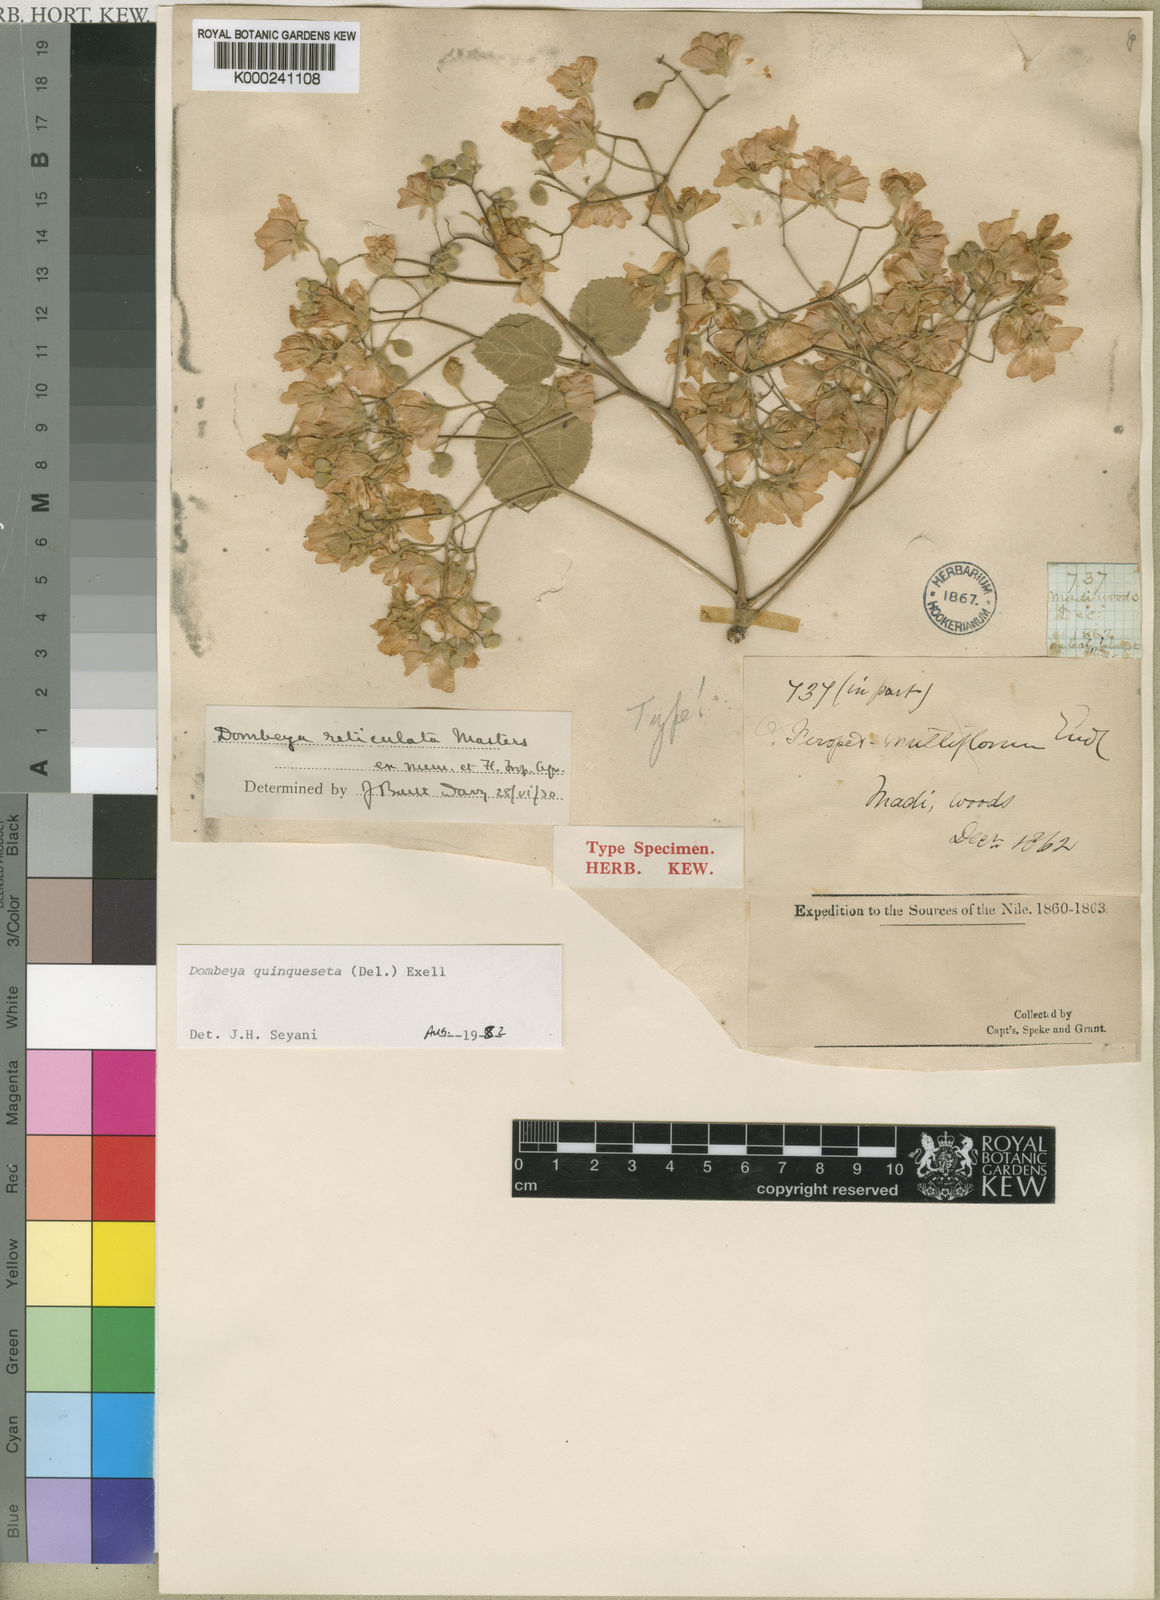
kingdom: Plantae
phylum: Tracheophyta
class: Magnoliopsida
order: Malvales
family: Malvaceae
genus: Dombeya
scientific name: Dombeya quinqueseta
